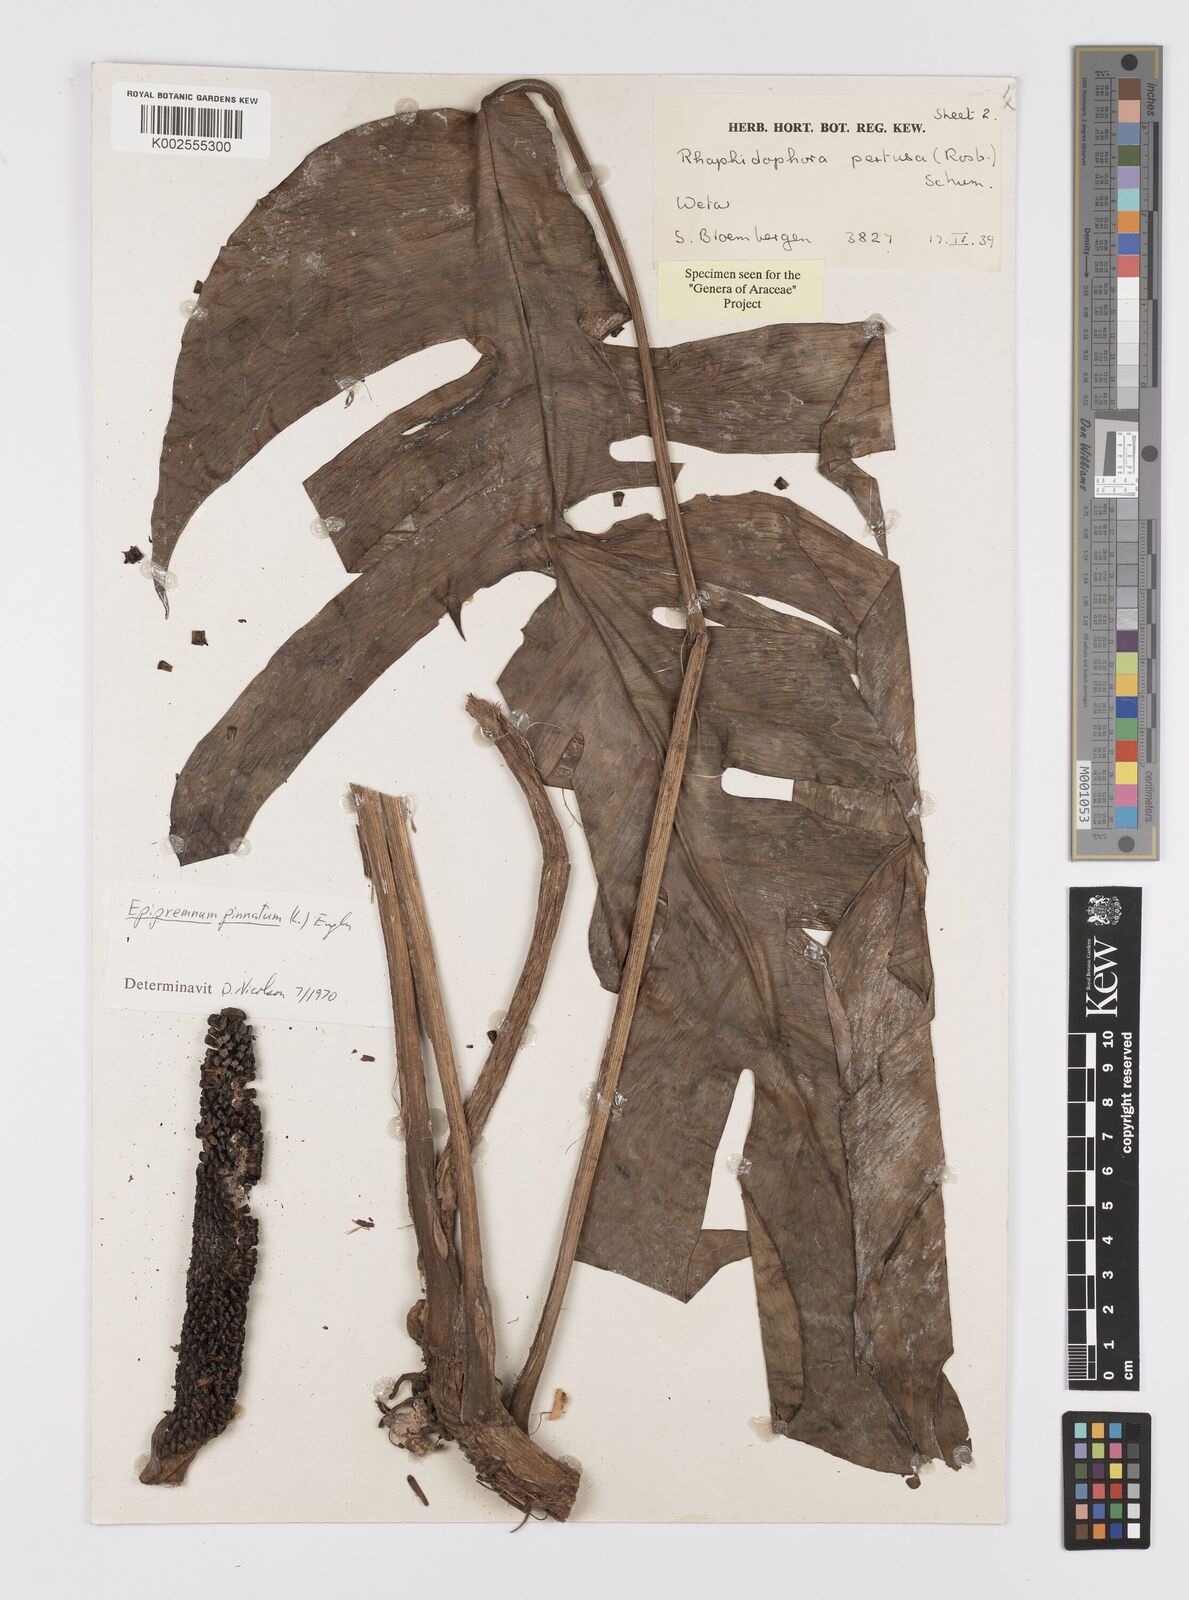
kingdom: Plantae
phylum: Tracheophyta
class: Liliopsida
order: Alismatales
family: Araceae
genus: Epipremnum
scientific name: Epipremnum pinnatum
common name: Centipede tongavine
